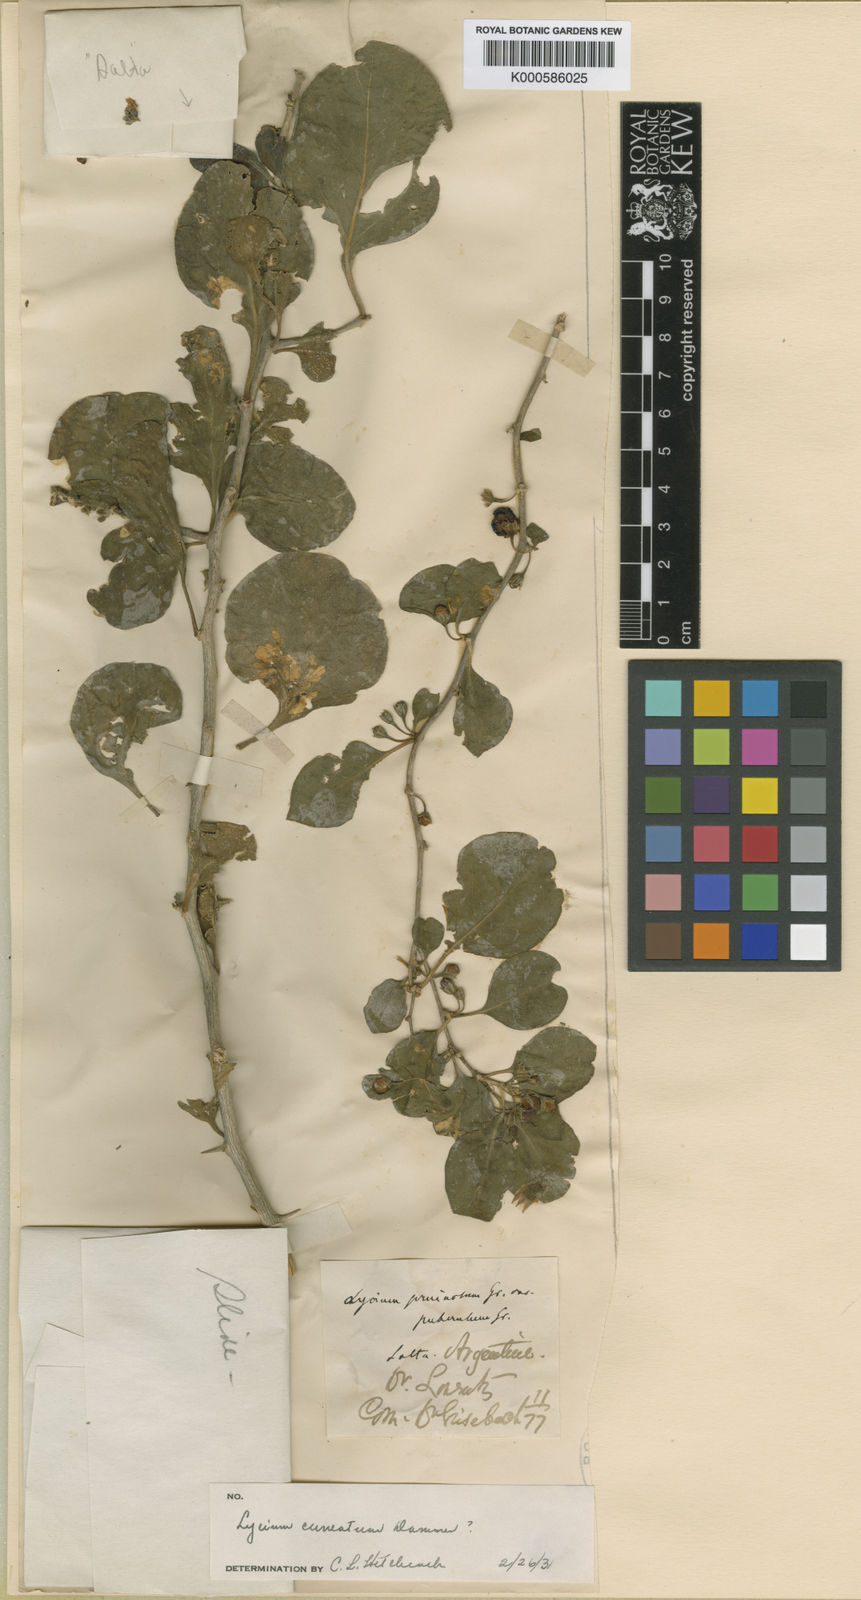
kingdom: Plantae
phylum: Tracheophyta
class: Magnoliopsida
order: Solanales
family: Solanaceae
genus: Lycium
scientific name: Lycium cuneatum
